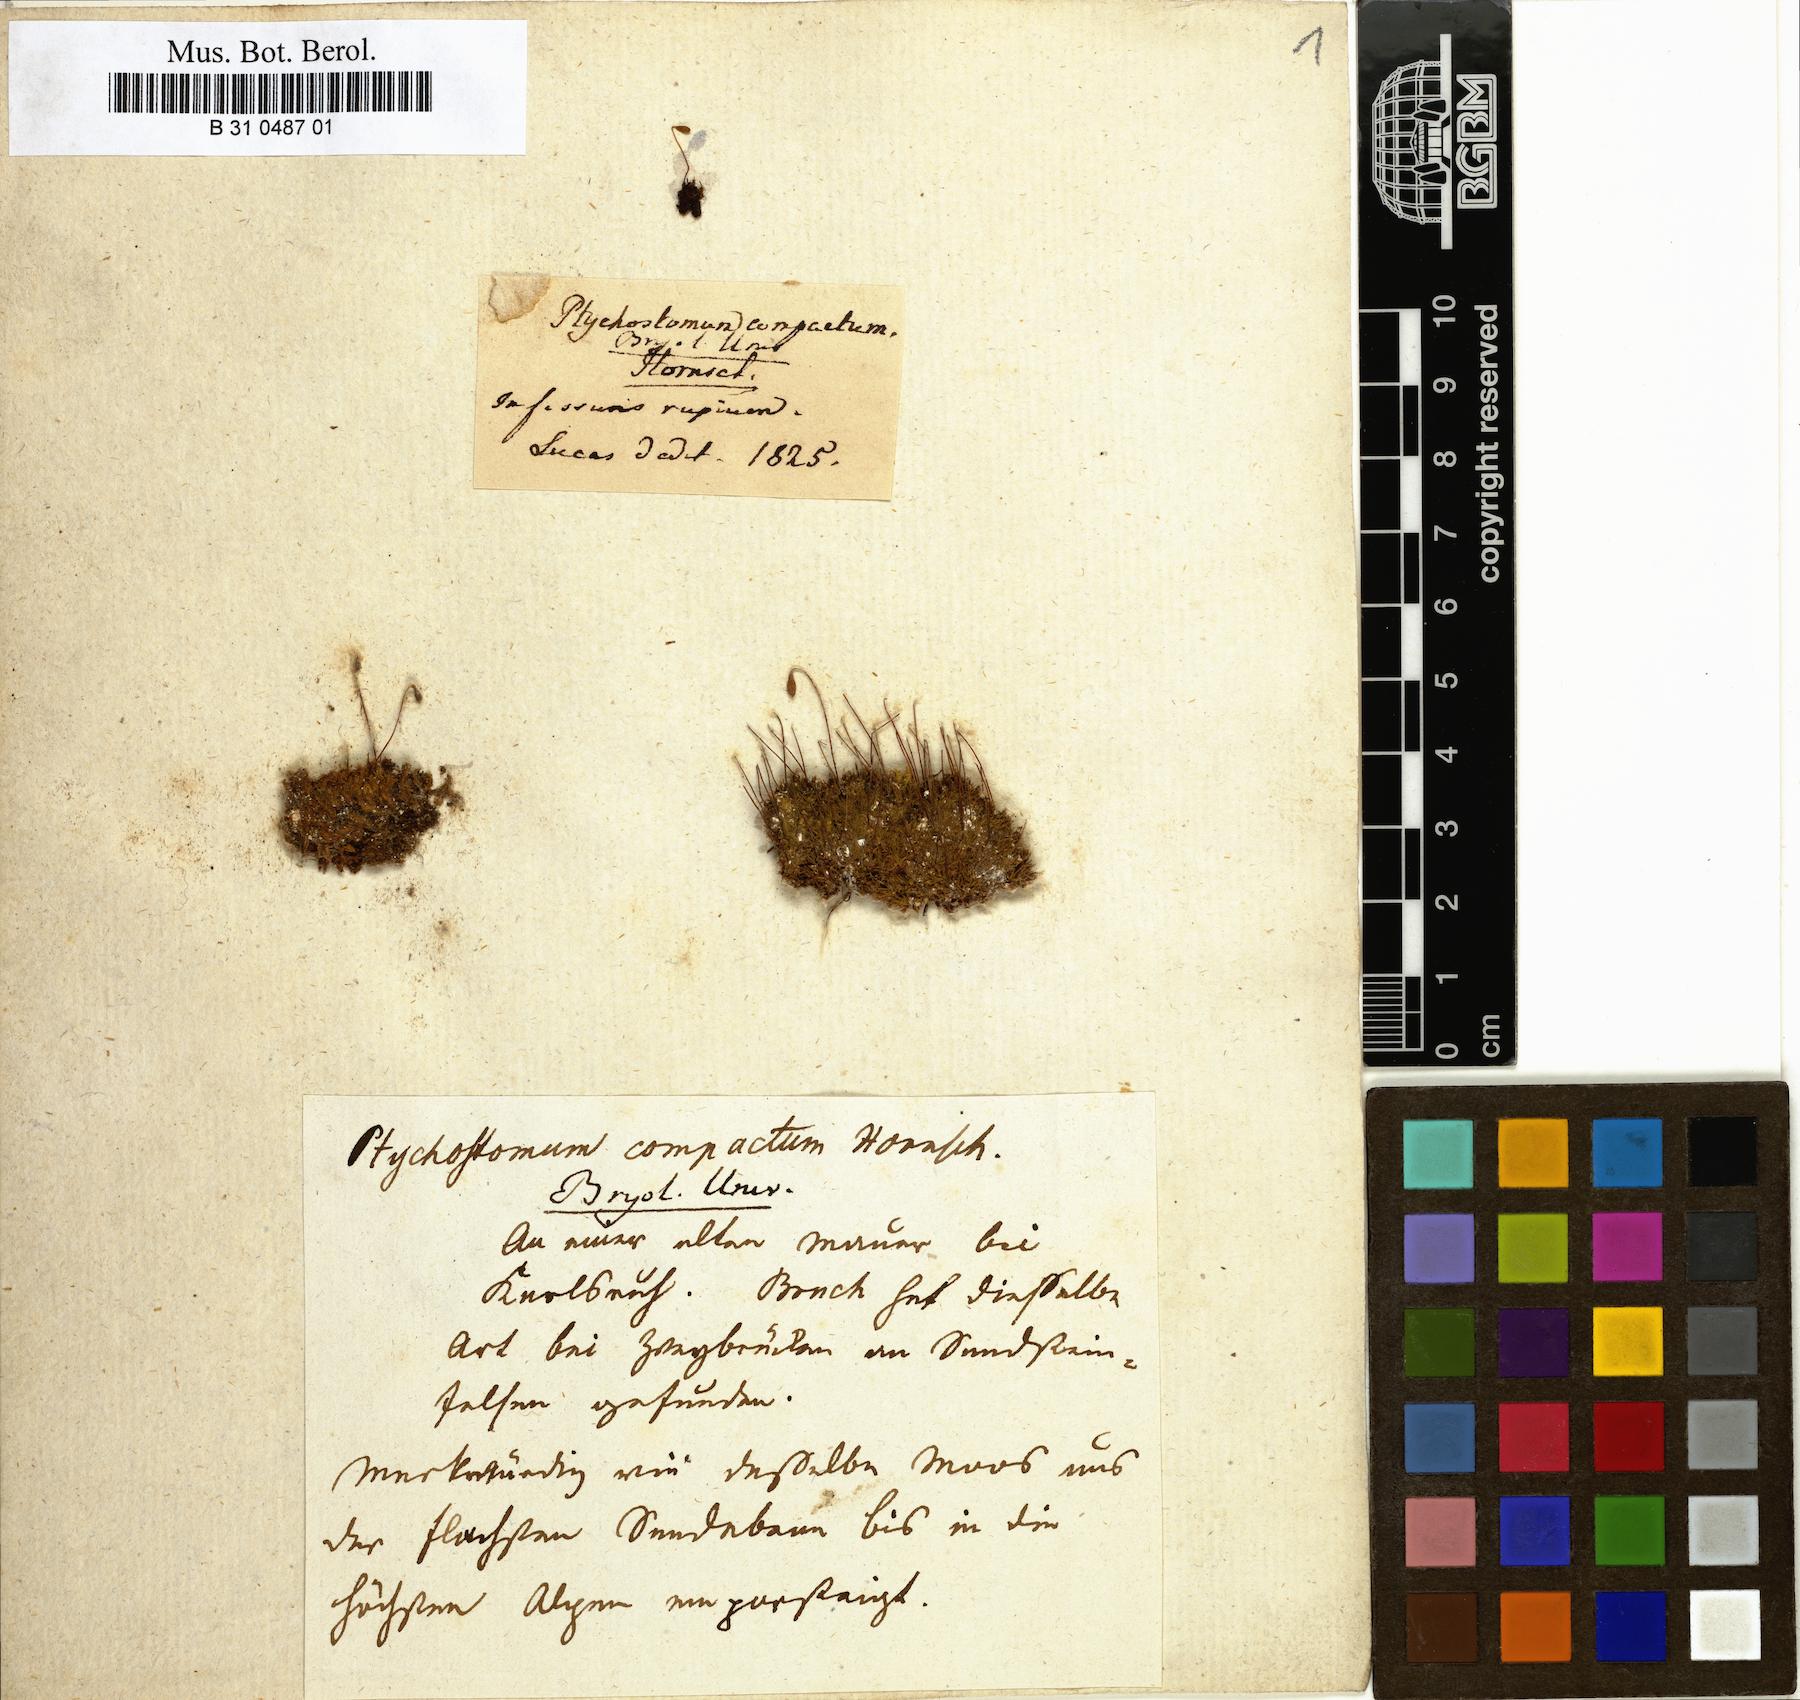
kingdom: Plantae
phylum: Bryophyta
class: Bryopsida
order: Bryales
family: Bryaceae
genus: Ptychostomum
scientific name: Ptychostomum compactum
